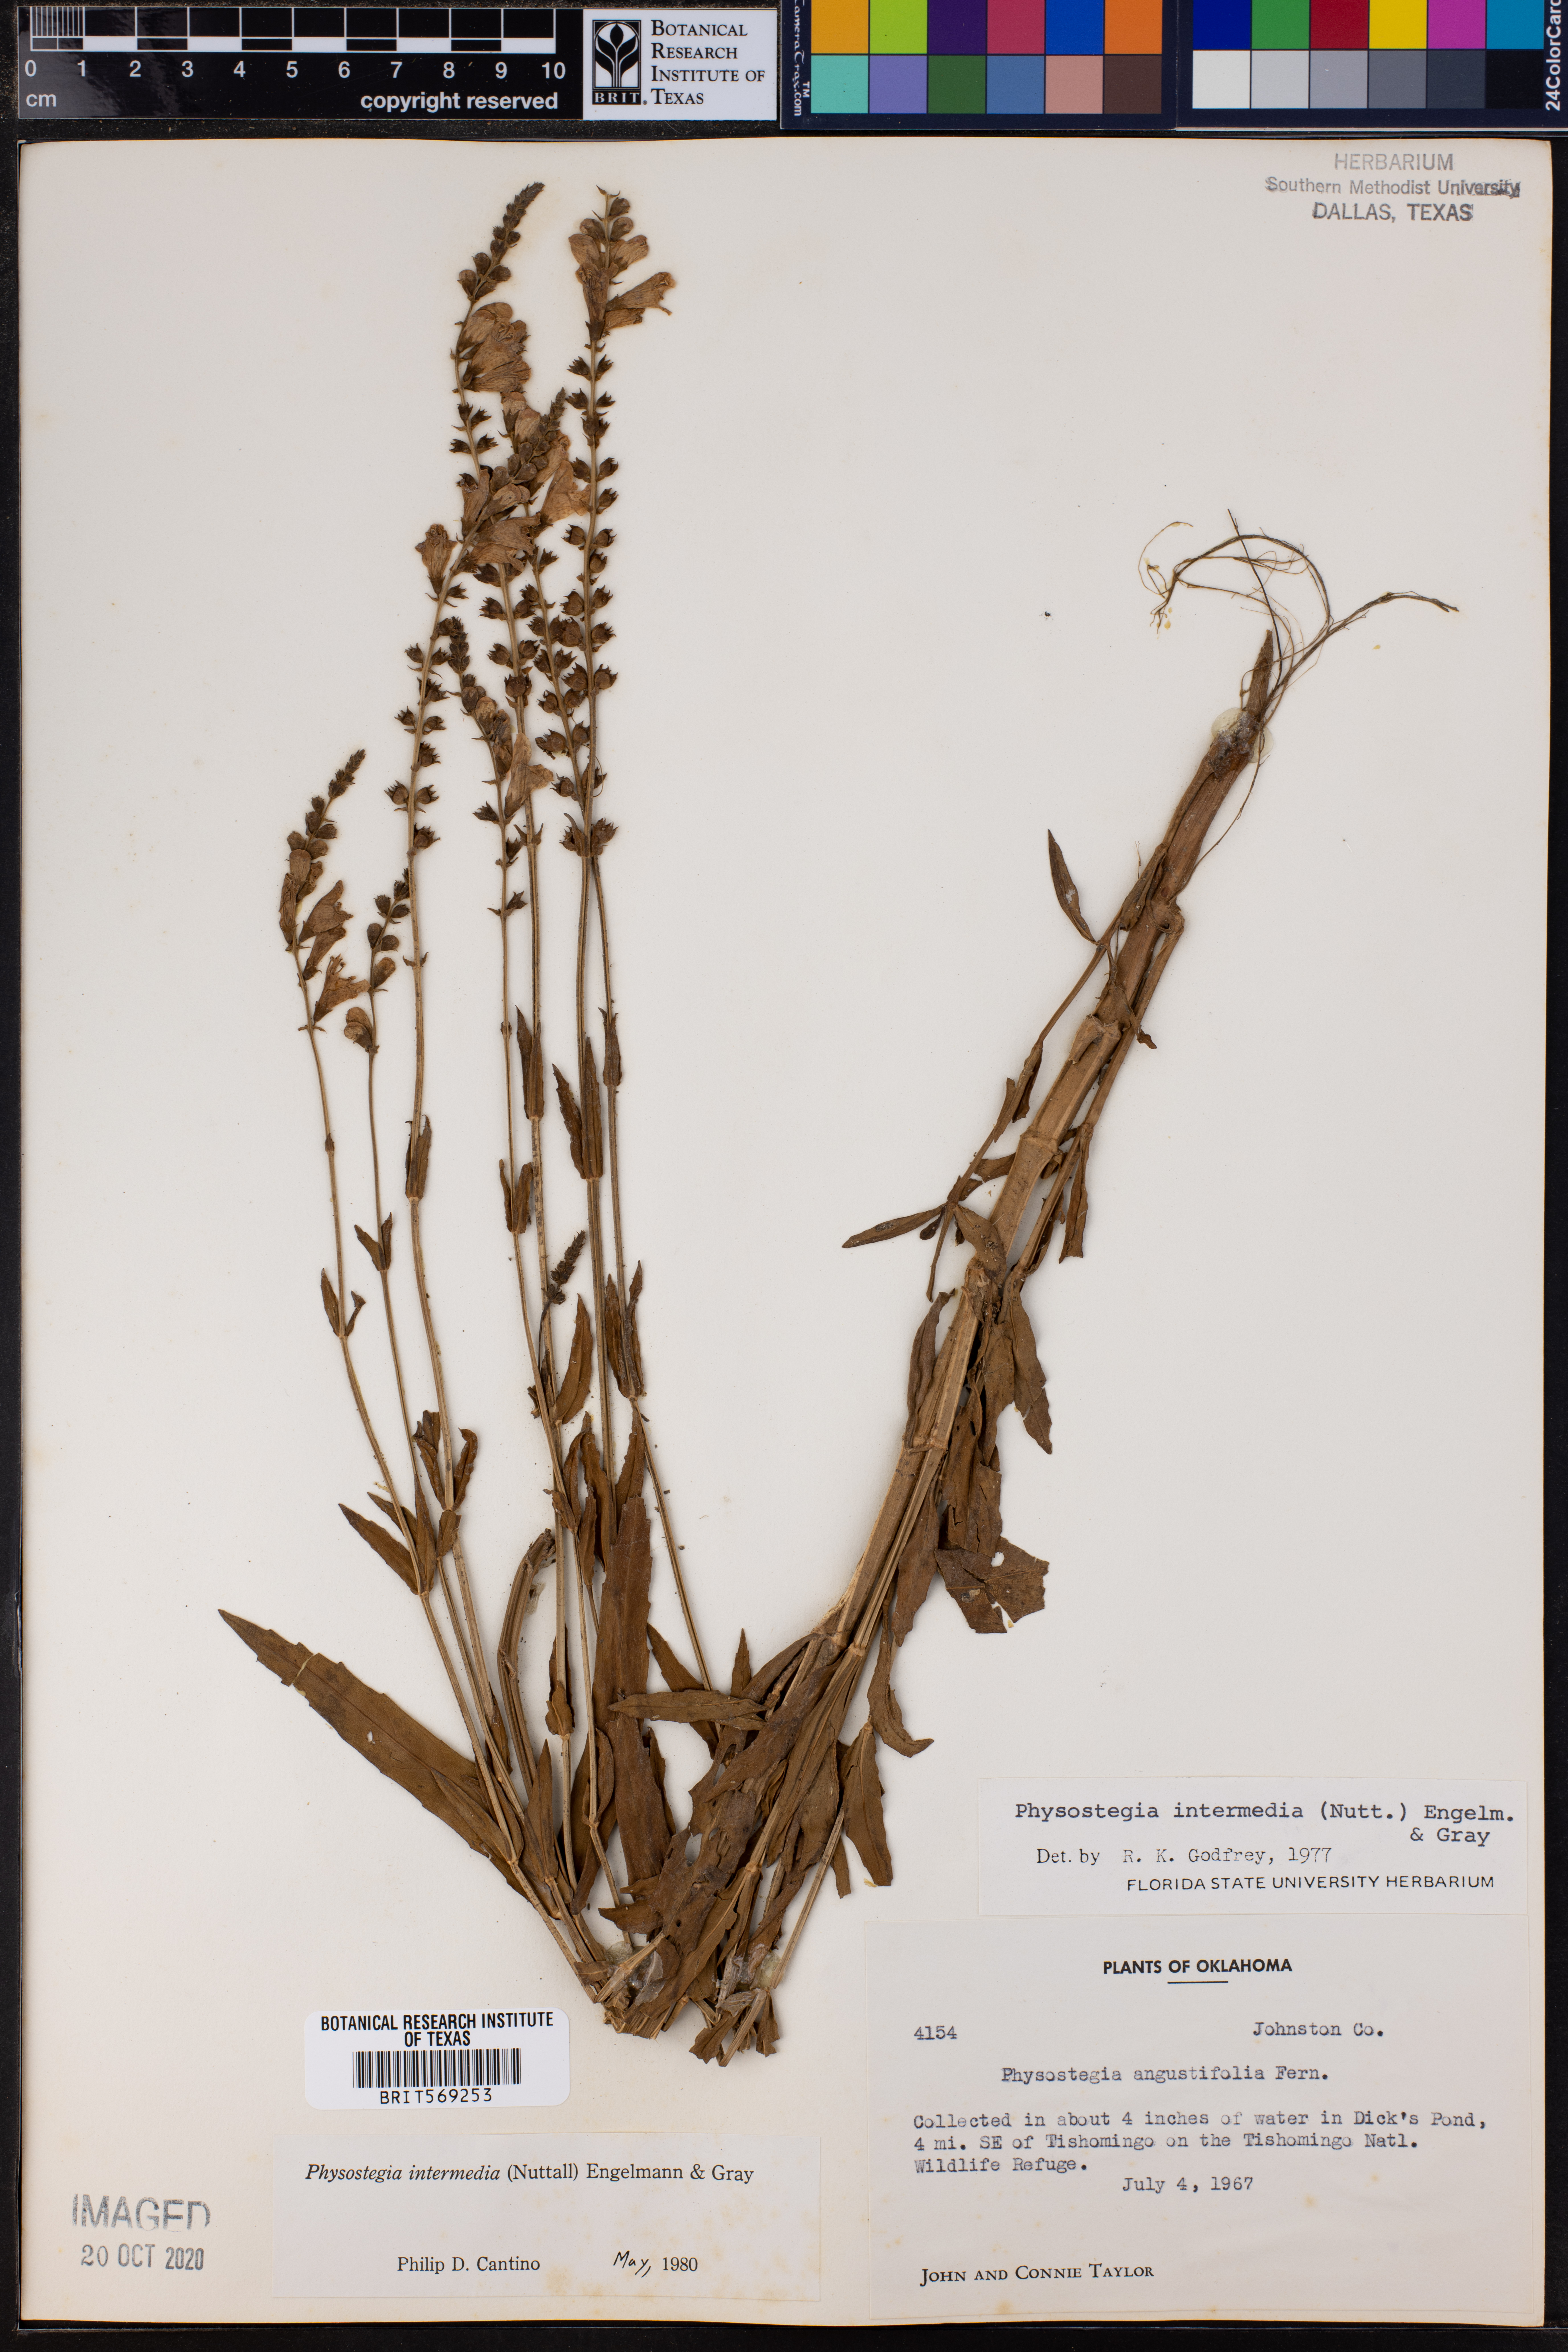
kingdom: Plantae
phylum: Tracheophyta
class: Magnoliopsida
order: Lamiales
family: Lamiaceae
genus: Physostegia
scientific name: Physostegia intermedia
